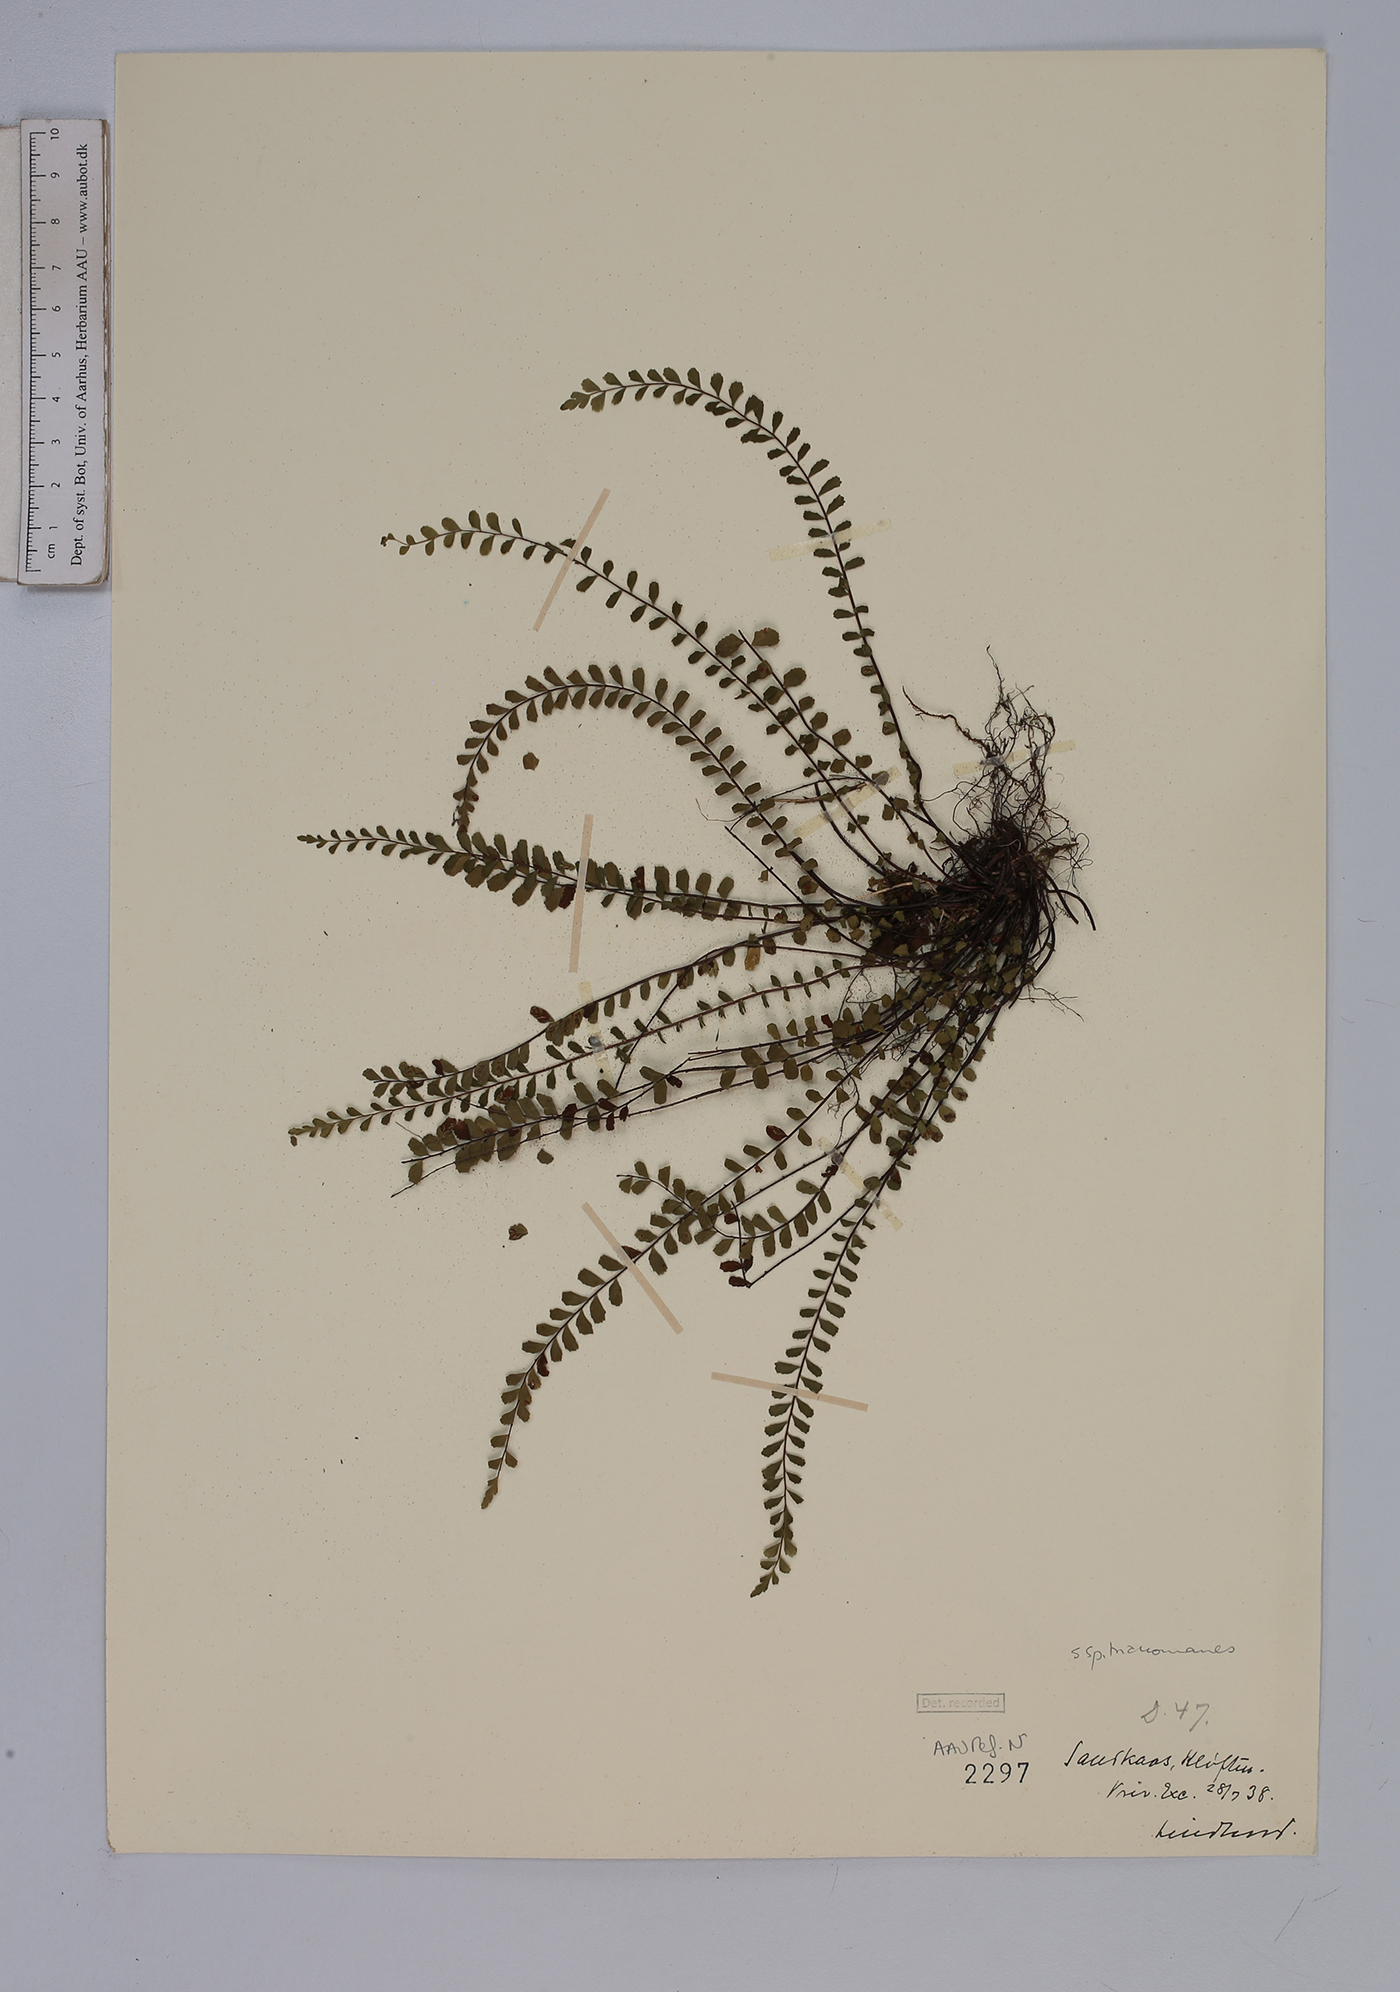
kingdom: Plantae
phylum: Tracheophyta
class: Polypodiopsida
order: Polypodiales
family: Aspleniaceae
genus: Asplenium
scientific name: Asplenium trichomanes
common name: Maidenhair spleenwort
